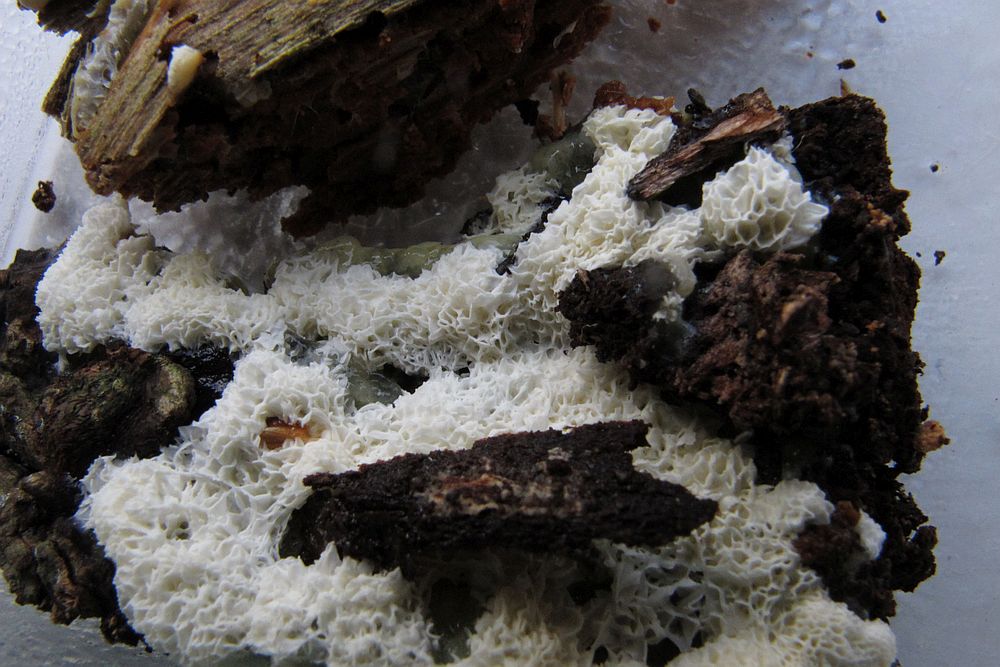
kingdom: Protozoa
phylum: Mycetozoa
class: Protosteliomycetes
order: Ceratiomyxales
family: Ceratiomyxaceae
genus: Ceratiomyxa
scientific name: Ceratiomyxa fruticulosa
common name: Honeycomb coral slime mold
